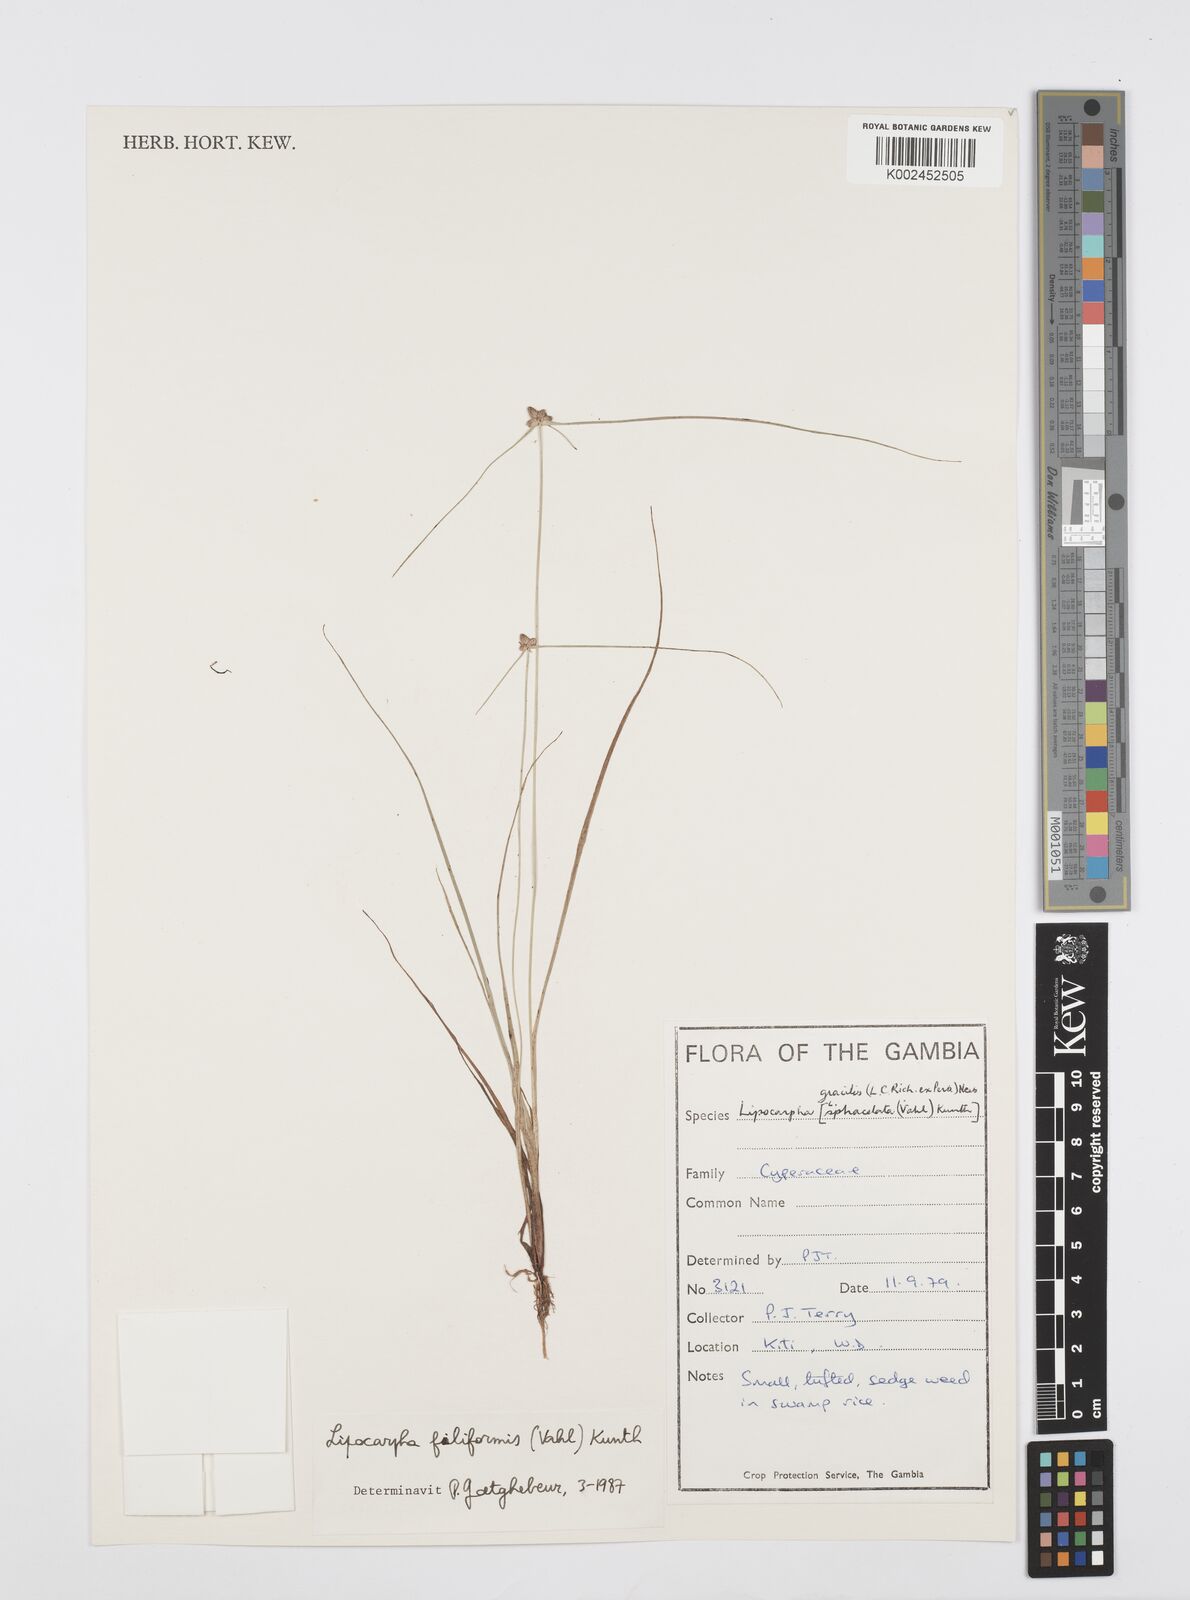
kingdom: Plantae
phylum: Tracheophyta
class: Liliopsida
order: Poales
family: Cyperaceae
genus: Cyperus
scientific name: Cyperus filiformis
